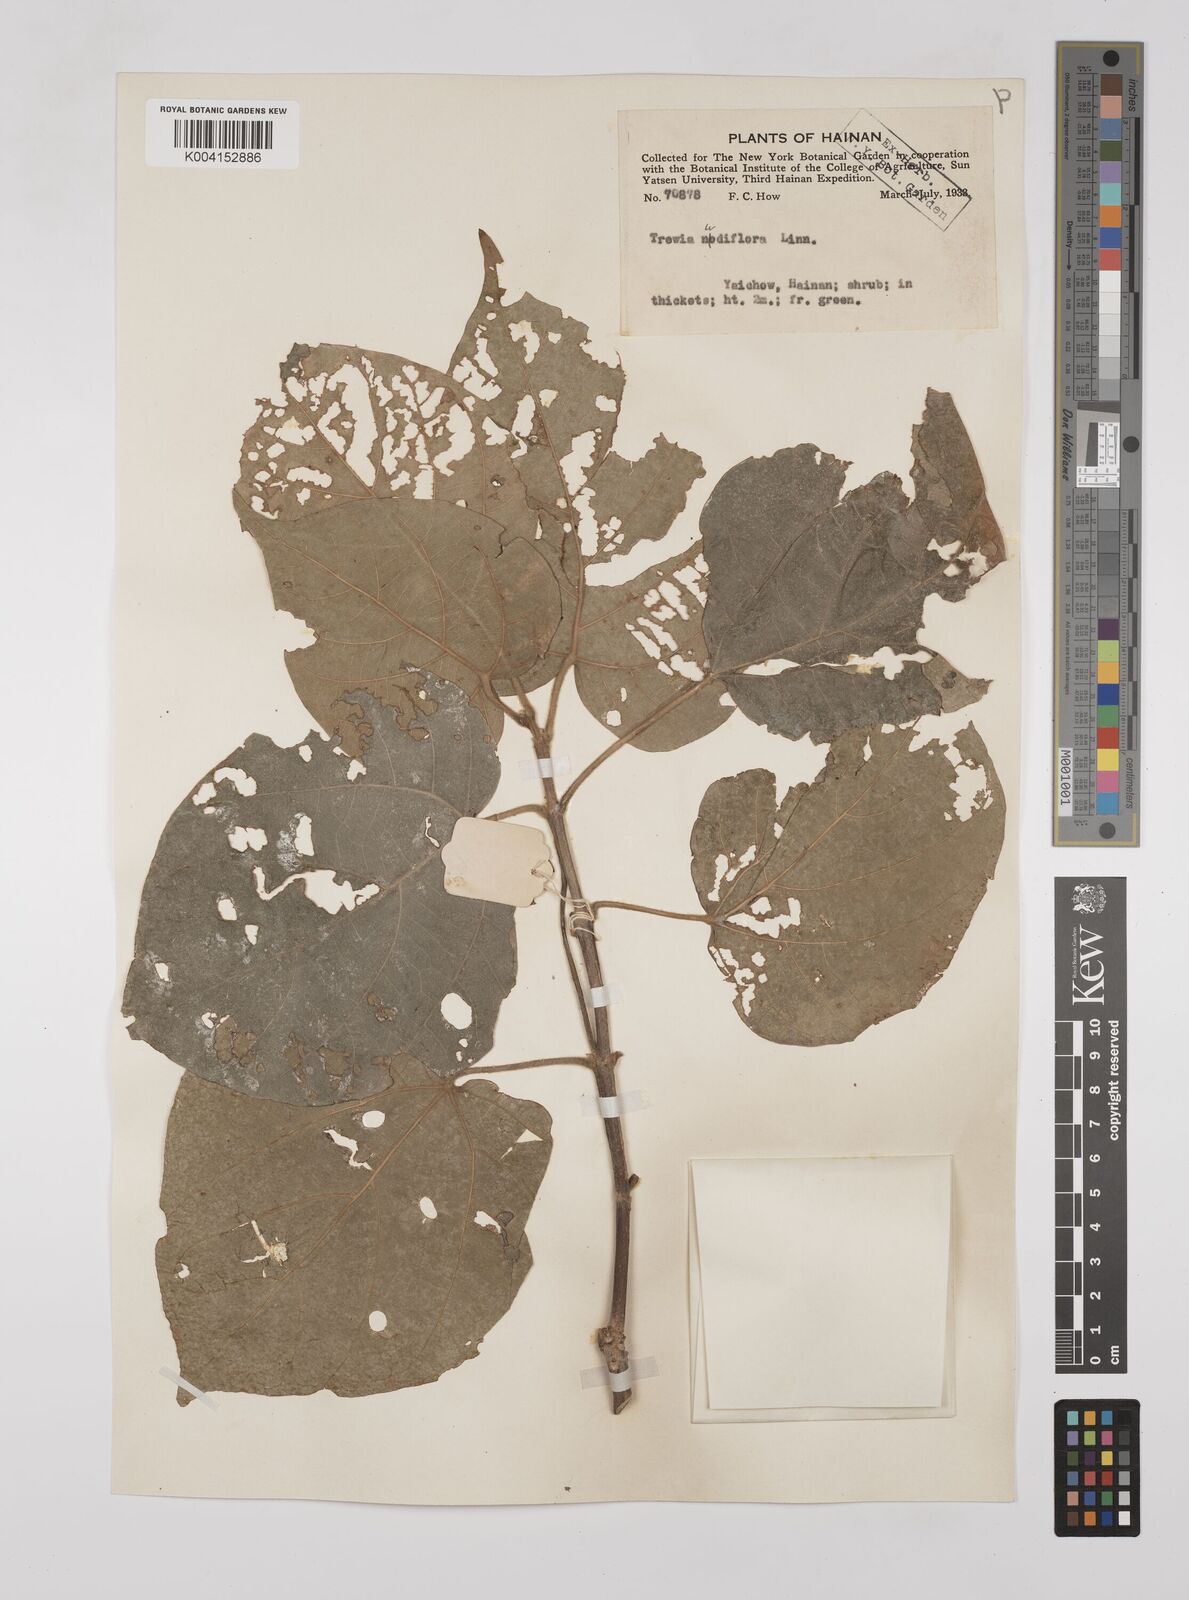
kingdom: Plantae
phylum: Tracheophyta
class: Magnoliopsida
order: Malpighiales
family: Euphorbiaceae
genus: Mallotus
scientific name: Mallotus nudiflorus
